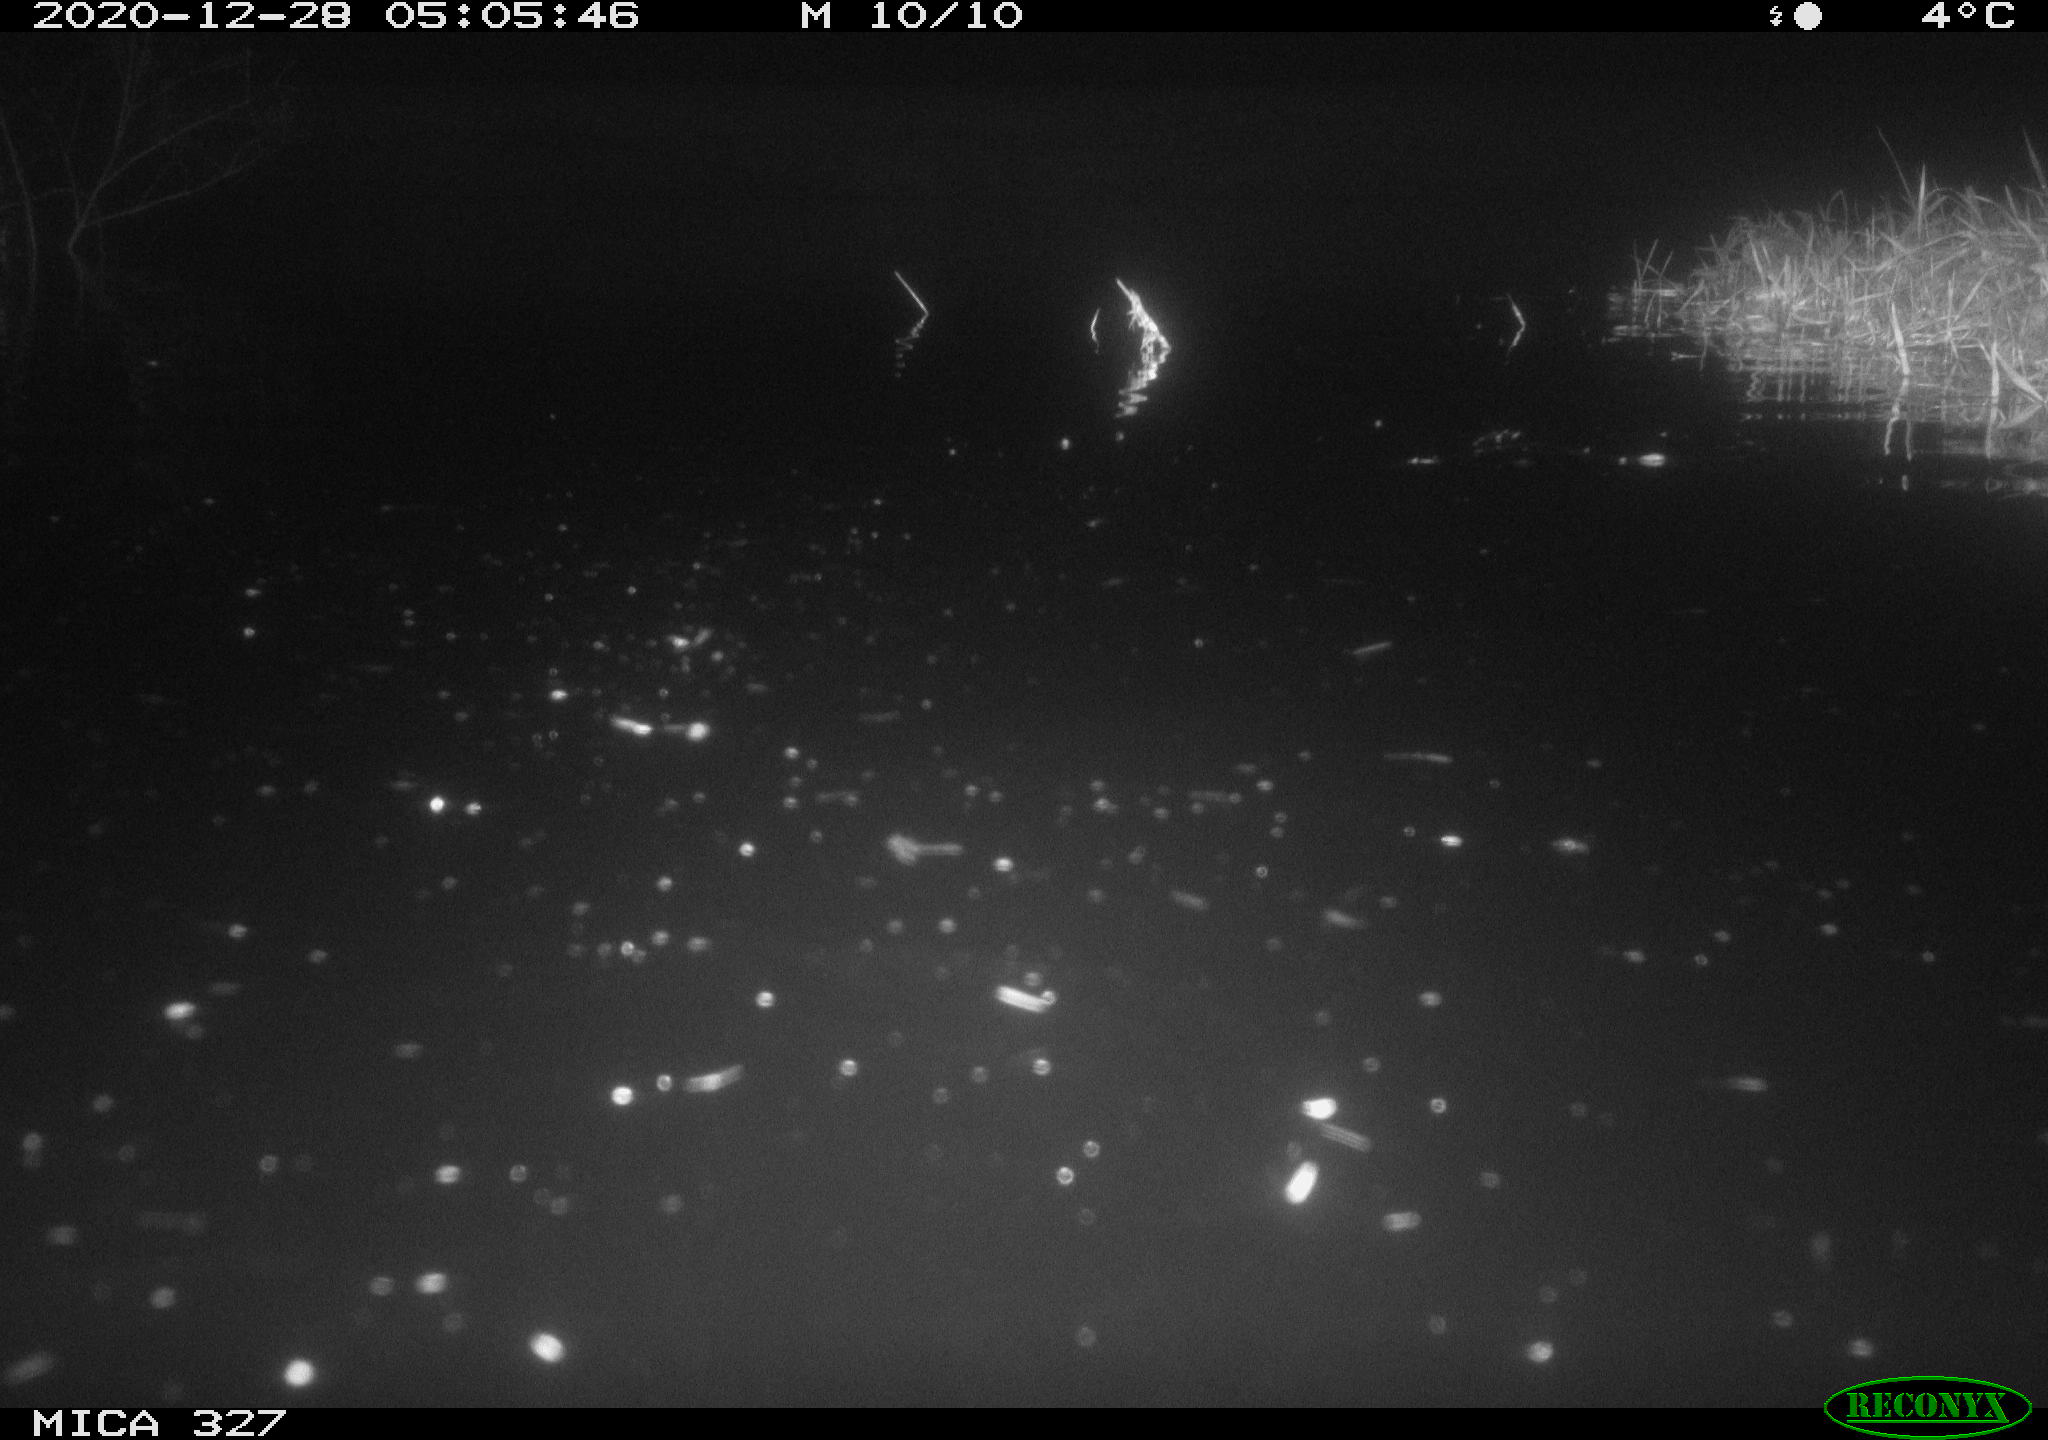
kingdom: Animalia
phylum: Chordata
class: Mammalia
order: Rodentia
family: Cricetidae
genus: Ondatra
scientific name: Ondatra zibethicus
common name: Muskrat
